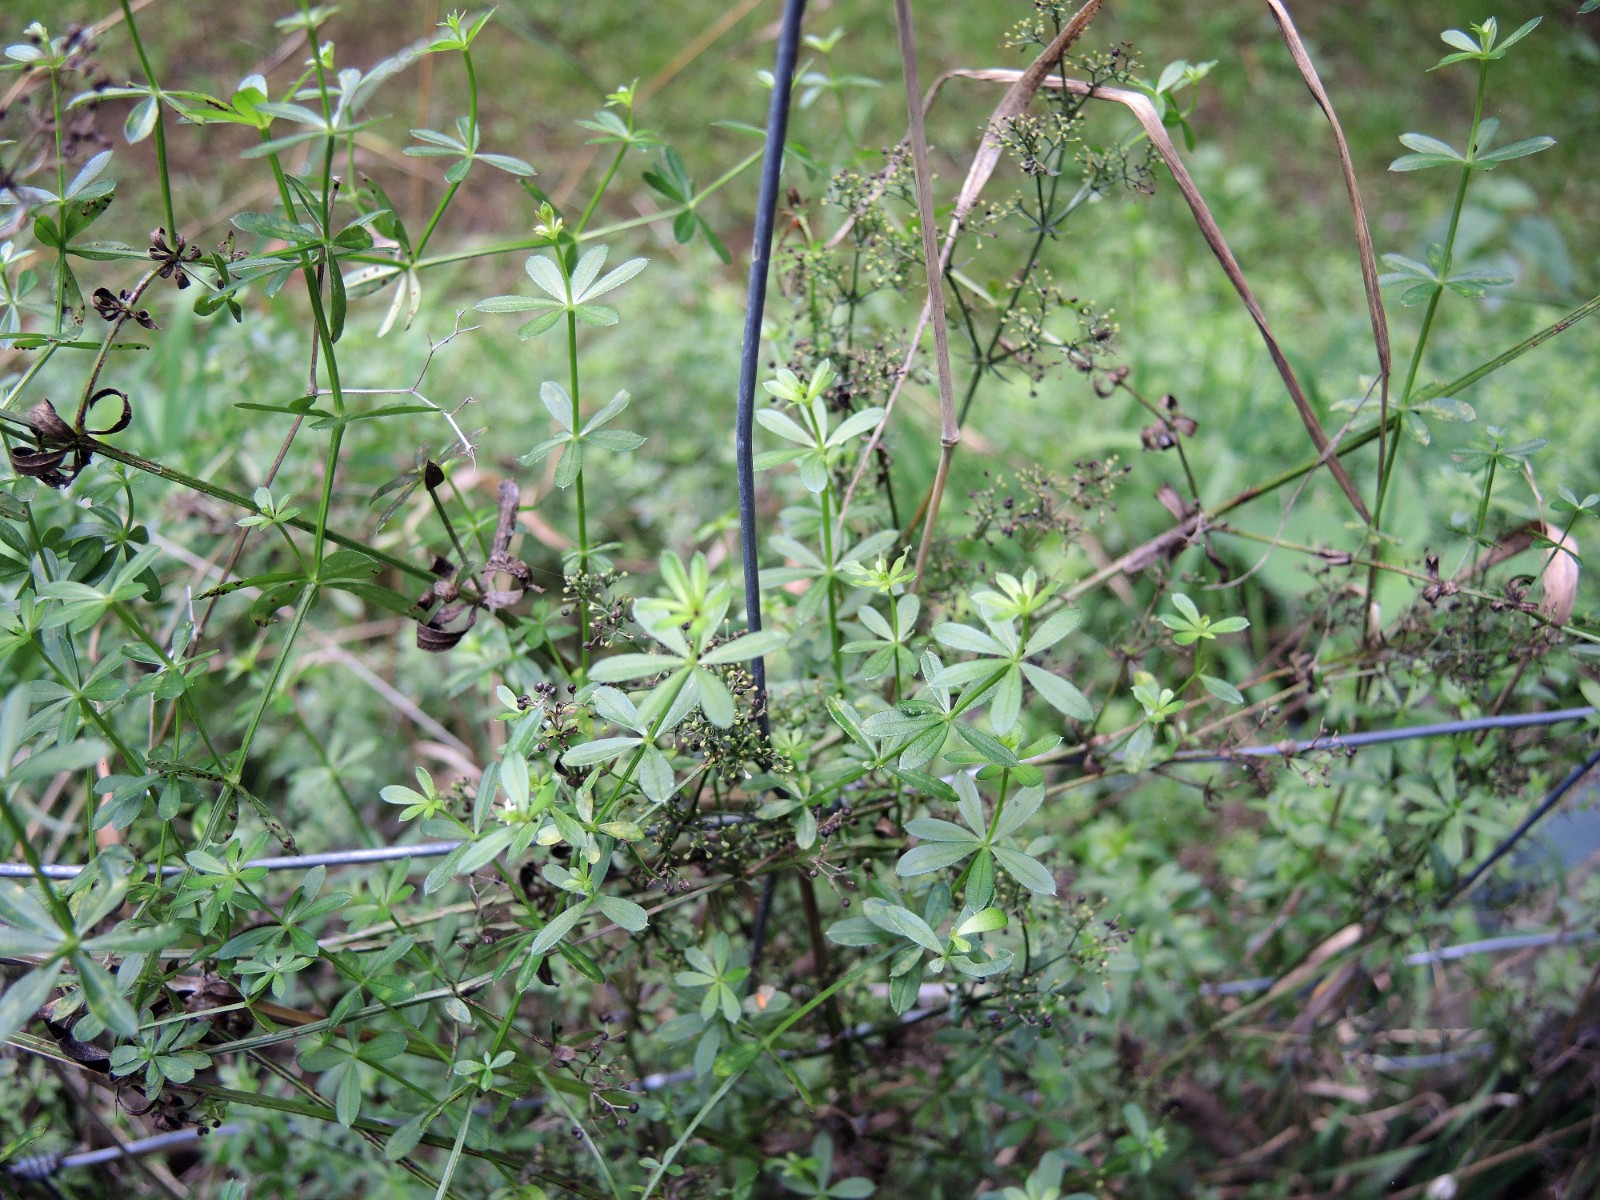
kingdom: Fungi
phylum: Basidiomycota
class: Pucciniomycetes
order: Pucciniales
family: Pucciniaceae
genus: Puccinia
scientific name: Puccinia punctata
